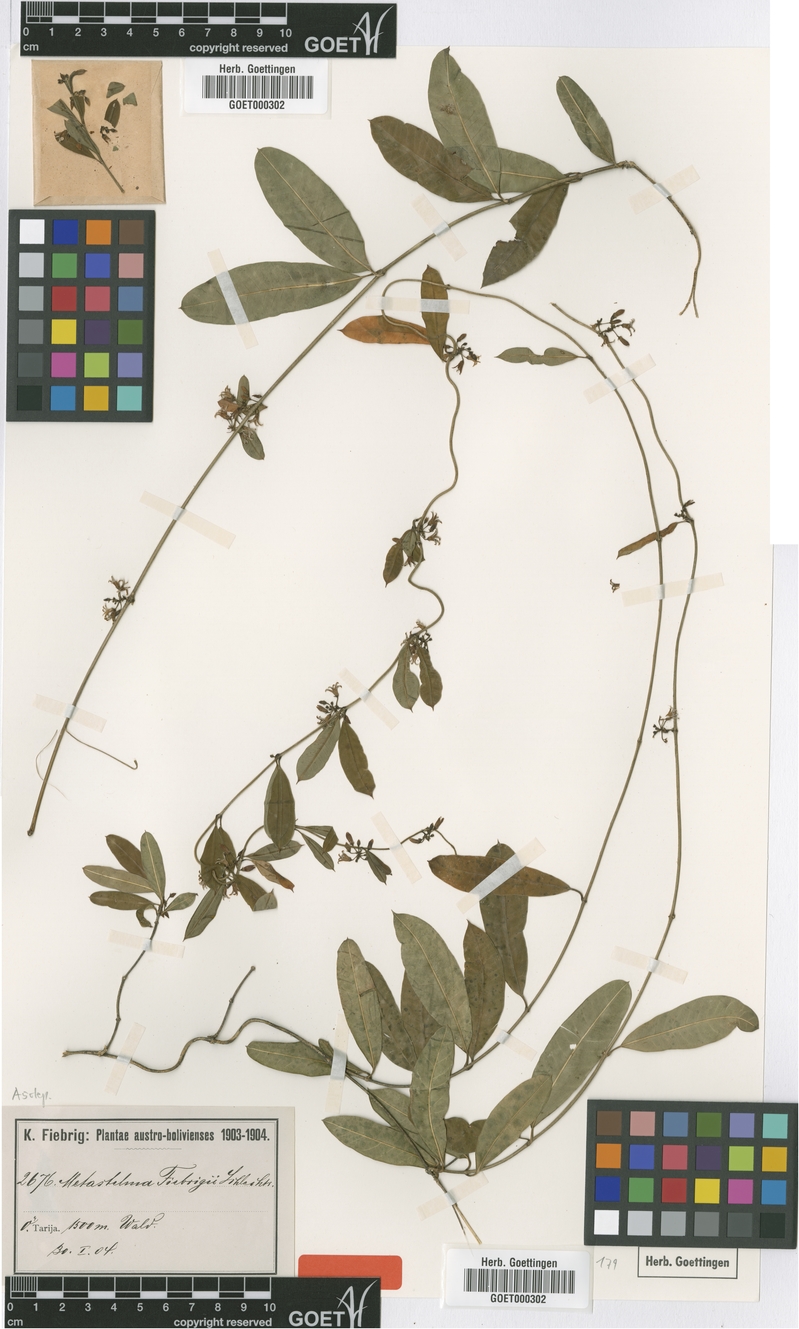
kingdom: Plantae
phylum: Tracheophyta
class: Magnoliopsida
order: Gentianales
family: Apocynaceae
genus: Metastelma
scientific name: Metastelma fiebrigii
